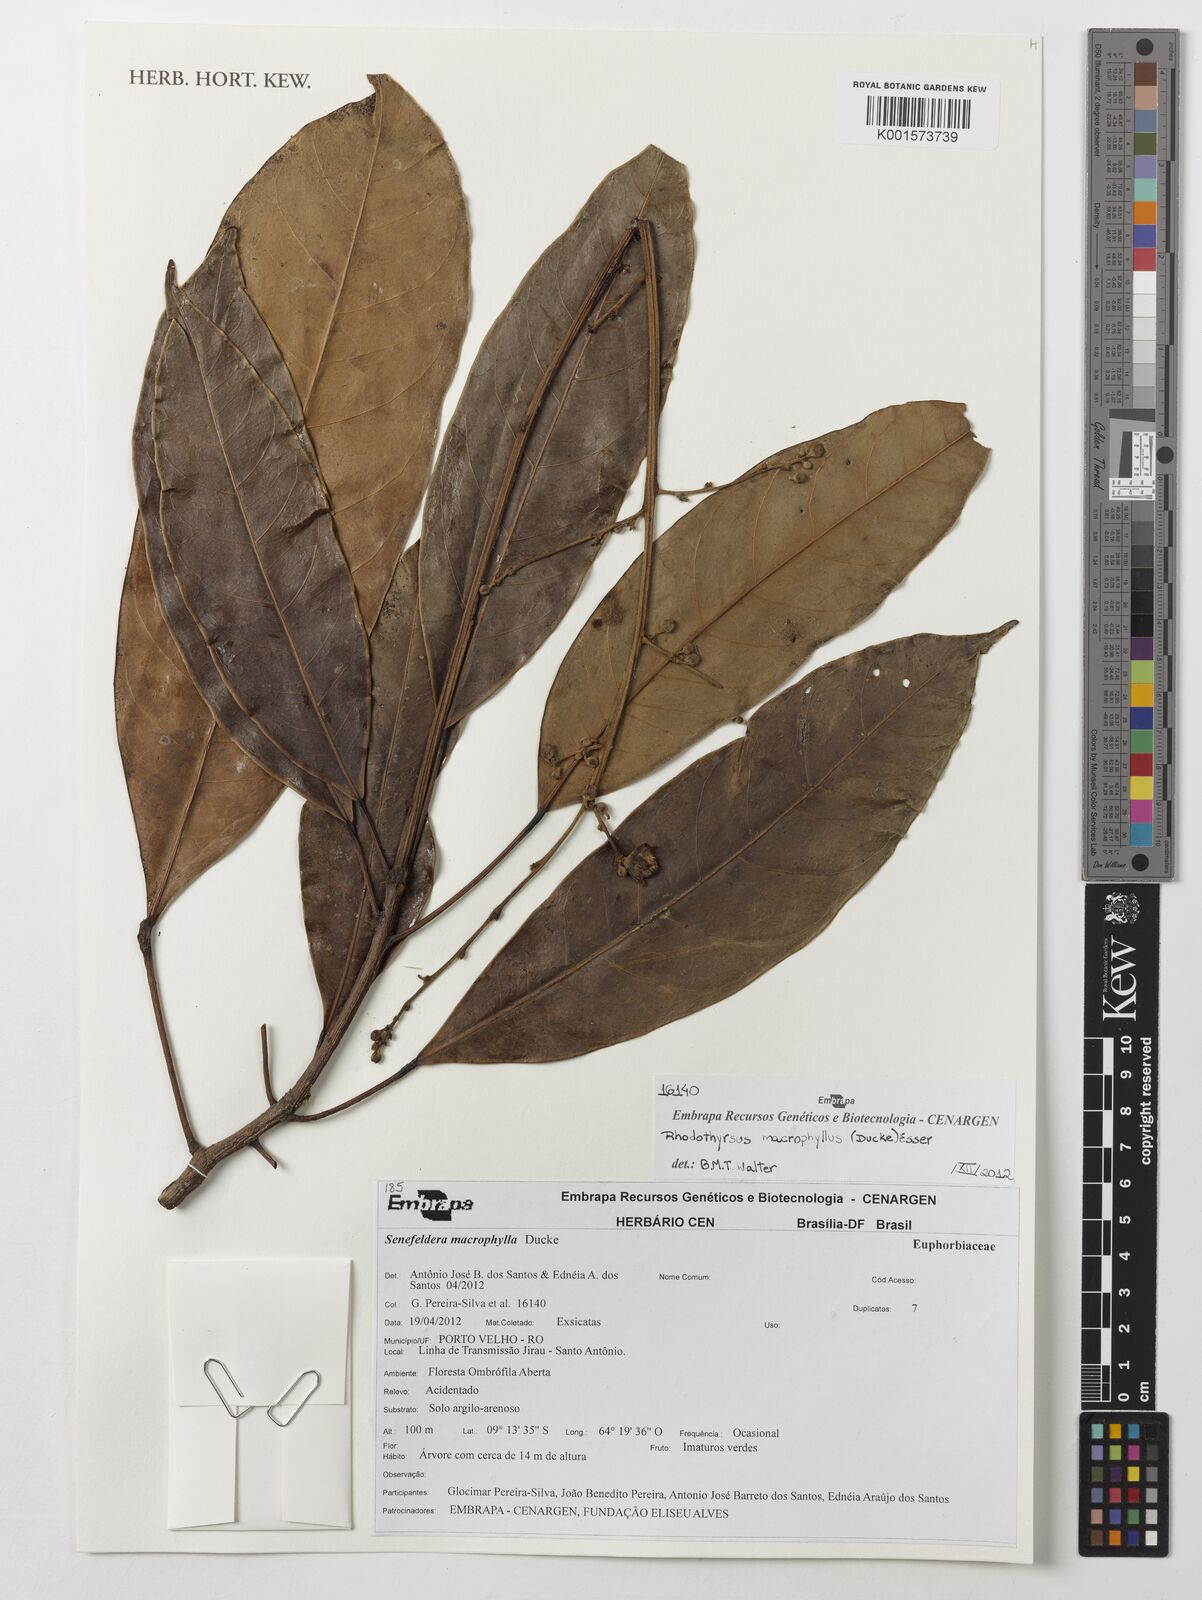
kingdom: Plantae
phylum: Tracheophyta
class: Magnoliopsida
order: Malpighiales
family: Euphorbiaceae
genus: Rhodothyrsus
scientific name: Rhodothyrsus macrophyllus
